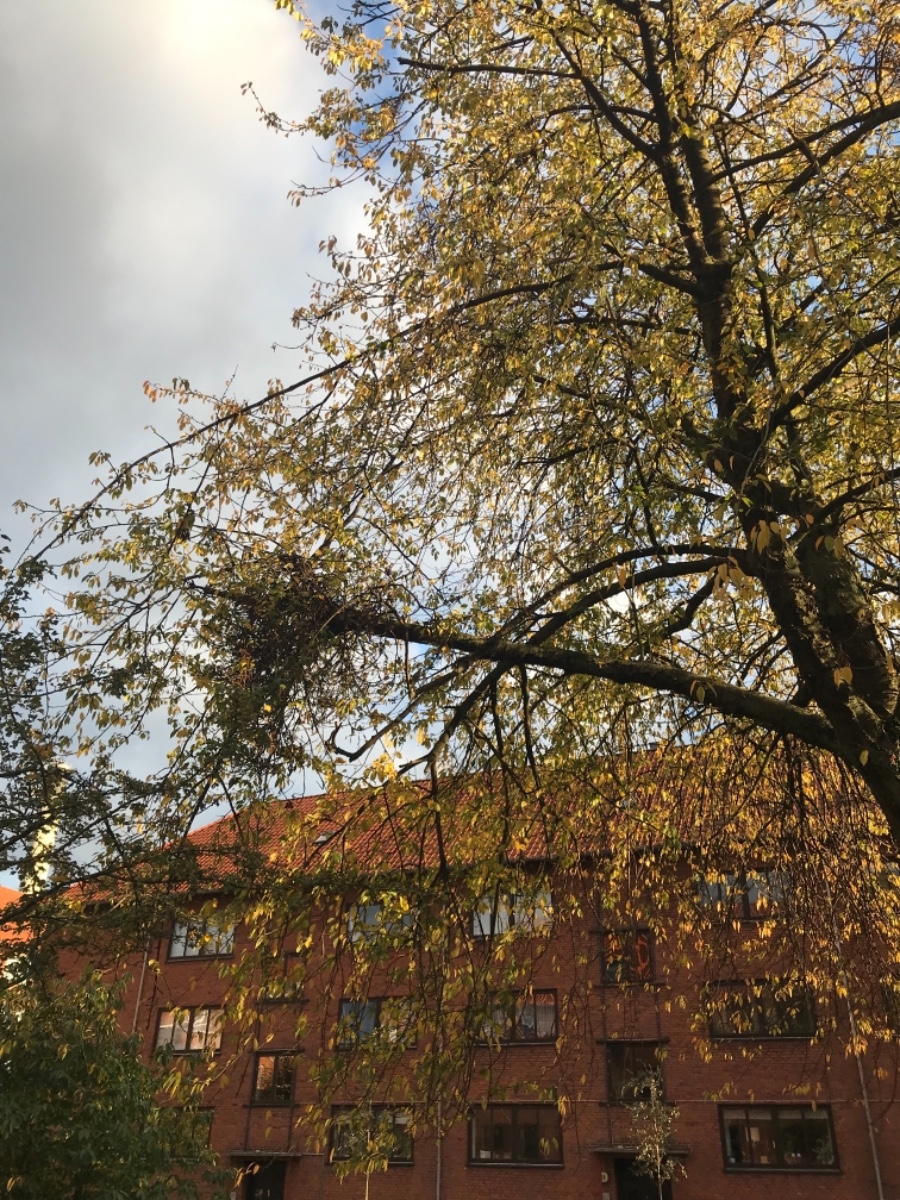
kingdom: Fungi
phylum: Ascomycota
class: Taphrinomycetes
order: Taphrinales
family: Taphrinaceae
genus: Taphrina
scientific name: Taphrina wiesneri
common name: Cherry leaf curl
